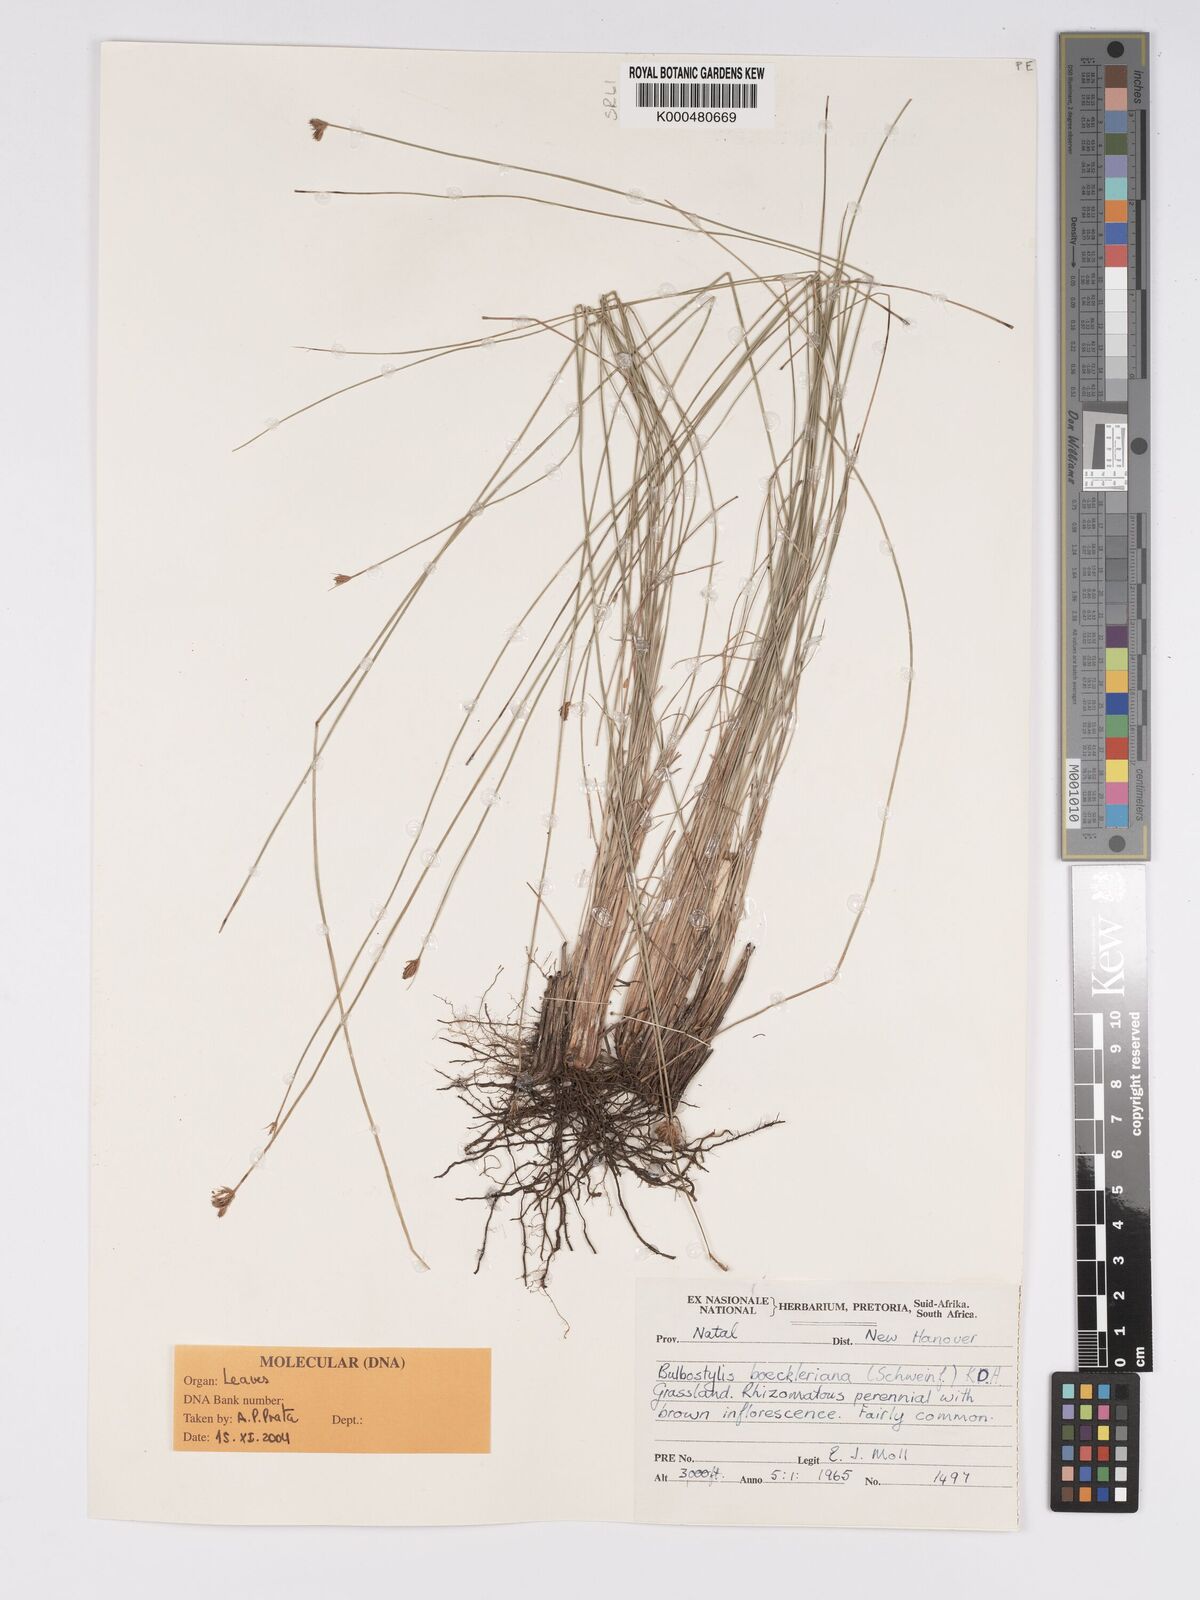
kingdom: Plantae
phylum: Tracheophyta
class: Liliopsida
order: Poales
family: Cyperaceae
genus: Bulbostylis
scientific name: Bulbostylis boeckeleriana
